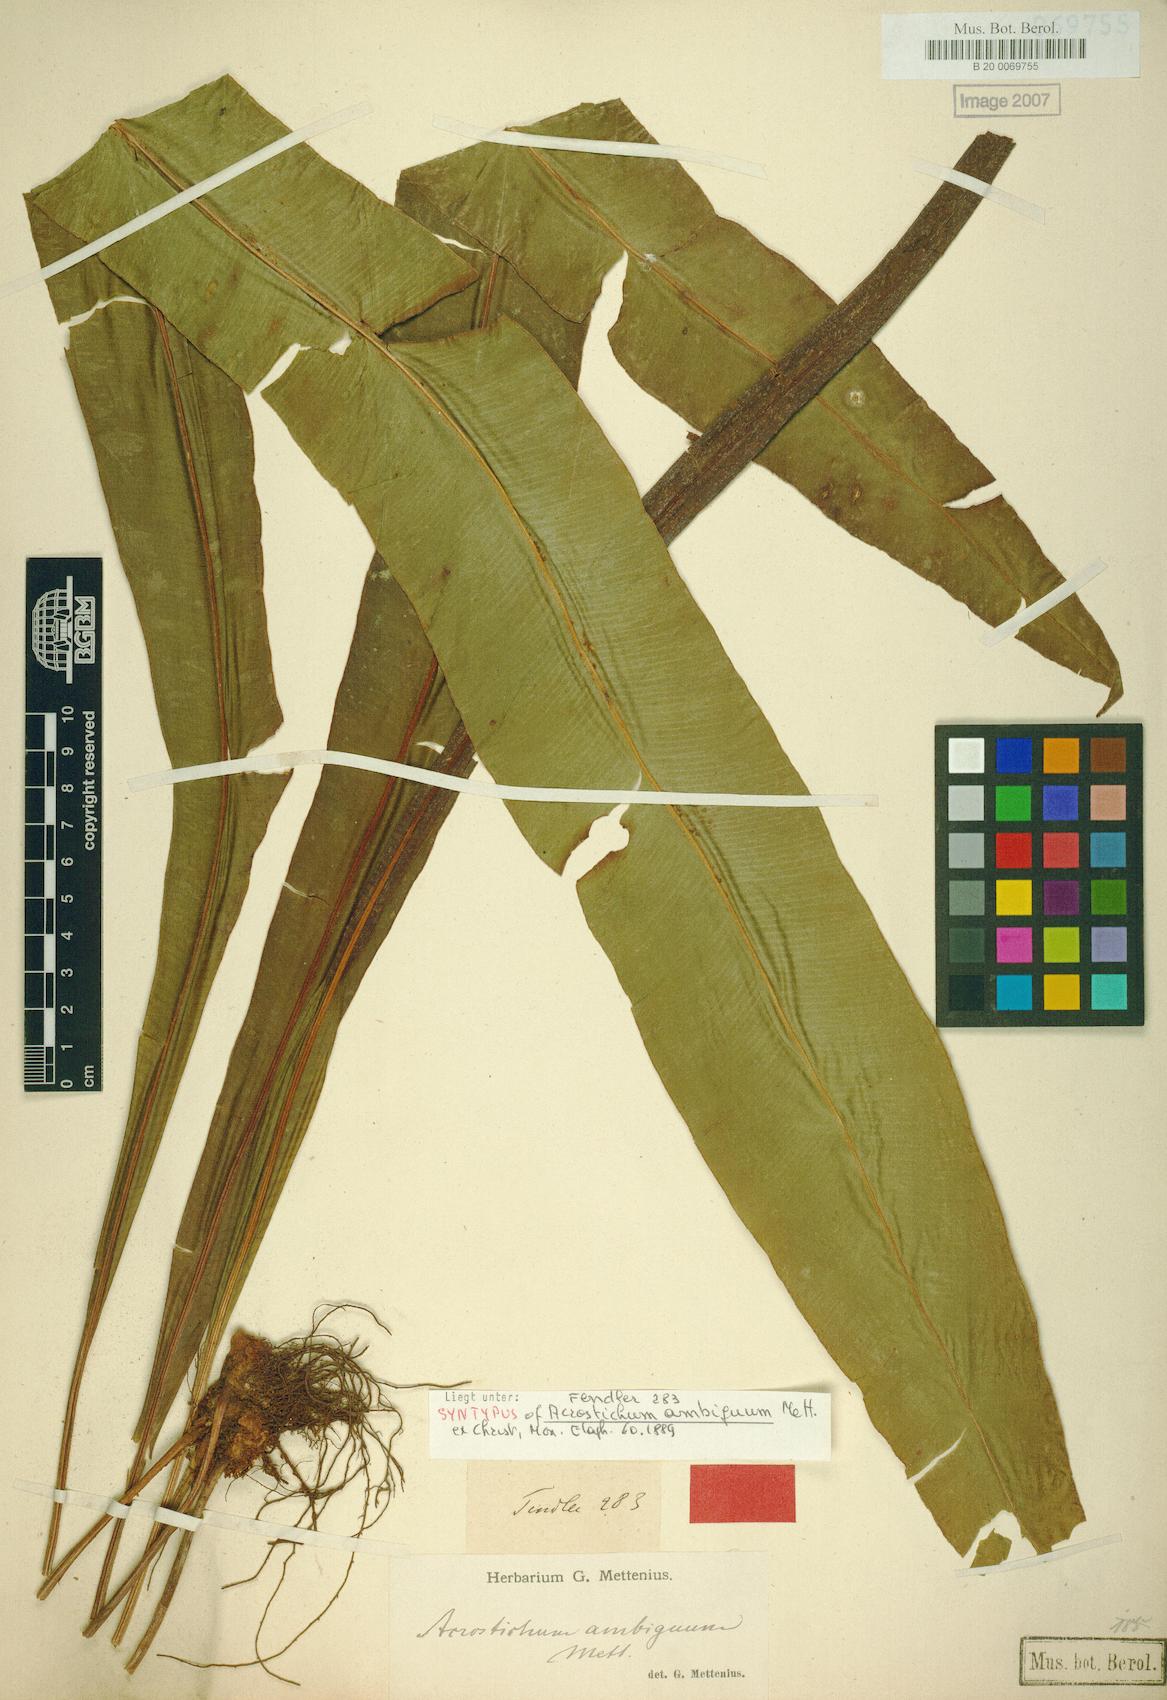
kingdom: Plantae
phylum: Tracheophyta
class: Polypodiopsida
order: Polypodiales
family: Dryopteridaceae
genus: Elaphoglossum
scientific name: Elaphoglossum ambiguum
